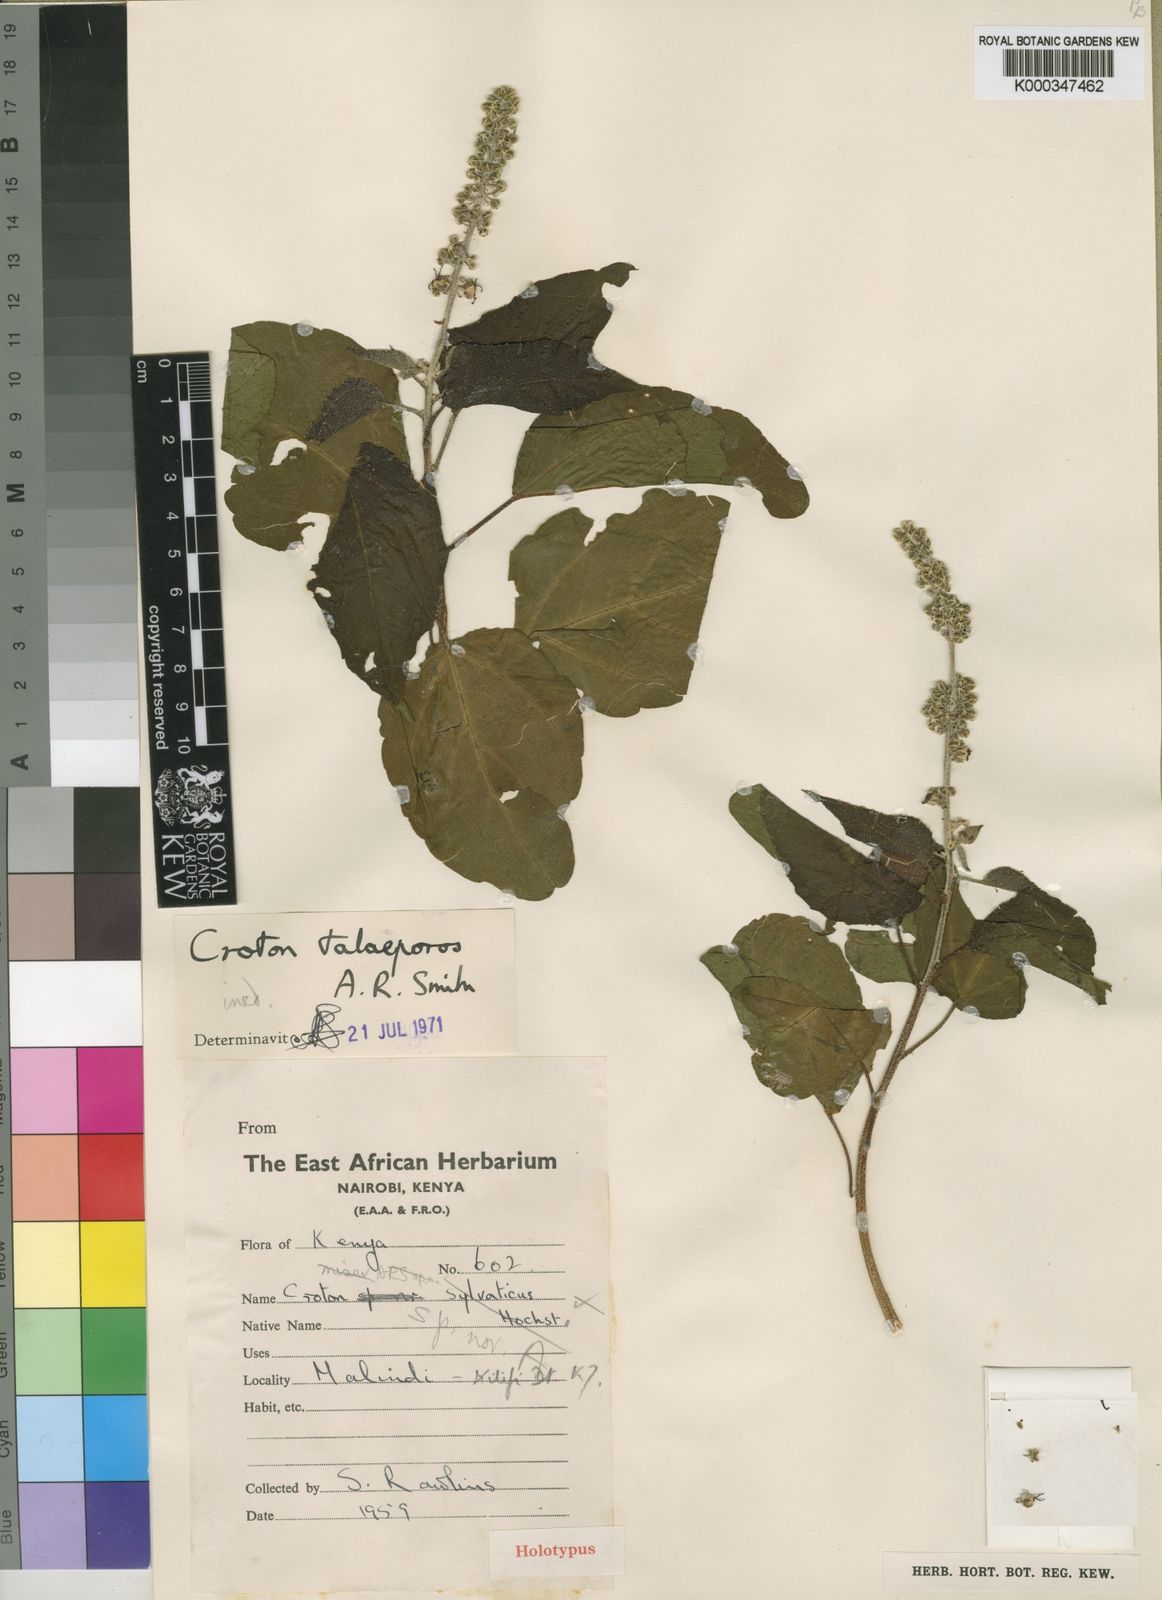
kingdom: Plantae
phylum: Tracheophyta
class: Magnoliopsida
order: Malpighiales
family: Euphorbiaceae
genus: Croton
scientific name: Croton talaeporos
